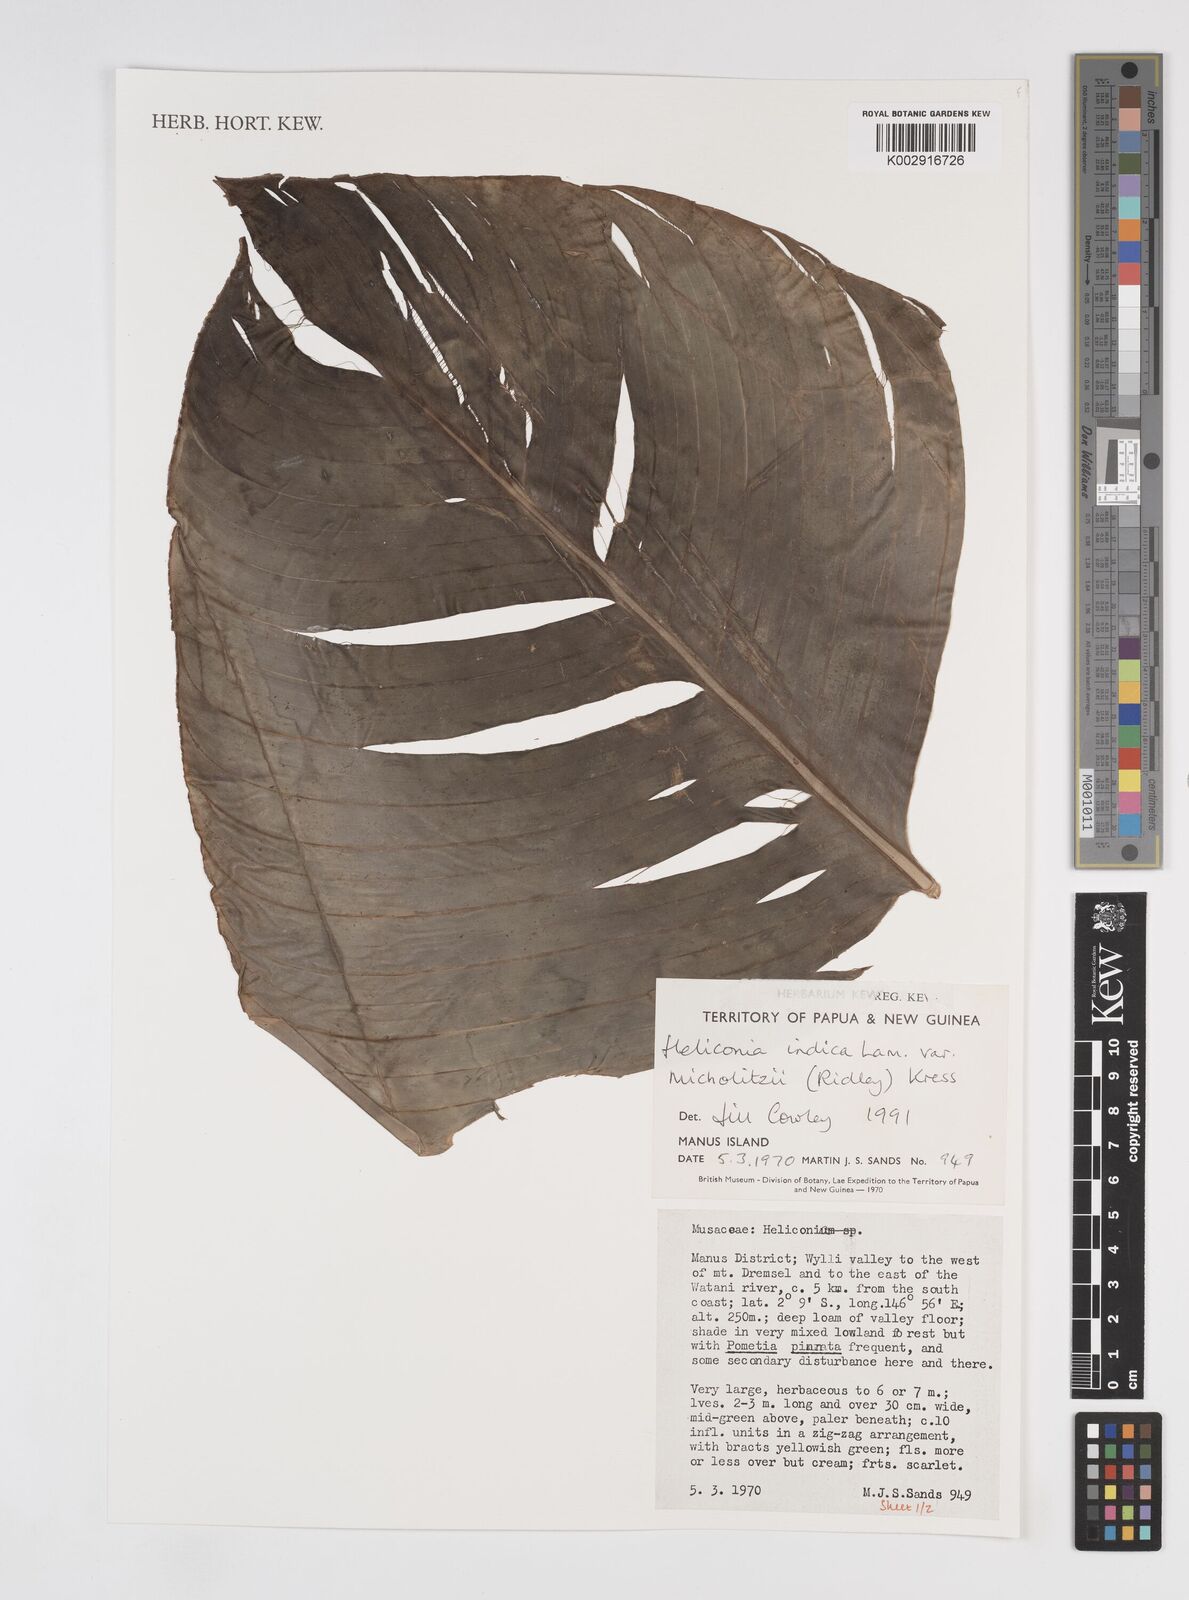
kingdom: Plantae
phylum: Tracheophyta
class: Liliopsida
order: Zingiberales
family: Heliconiaceae
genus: Heliconia
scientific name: Heliconia indica
